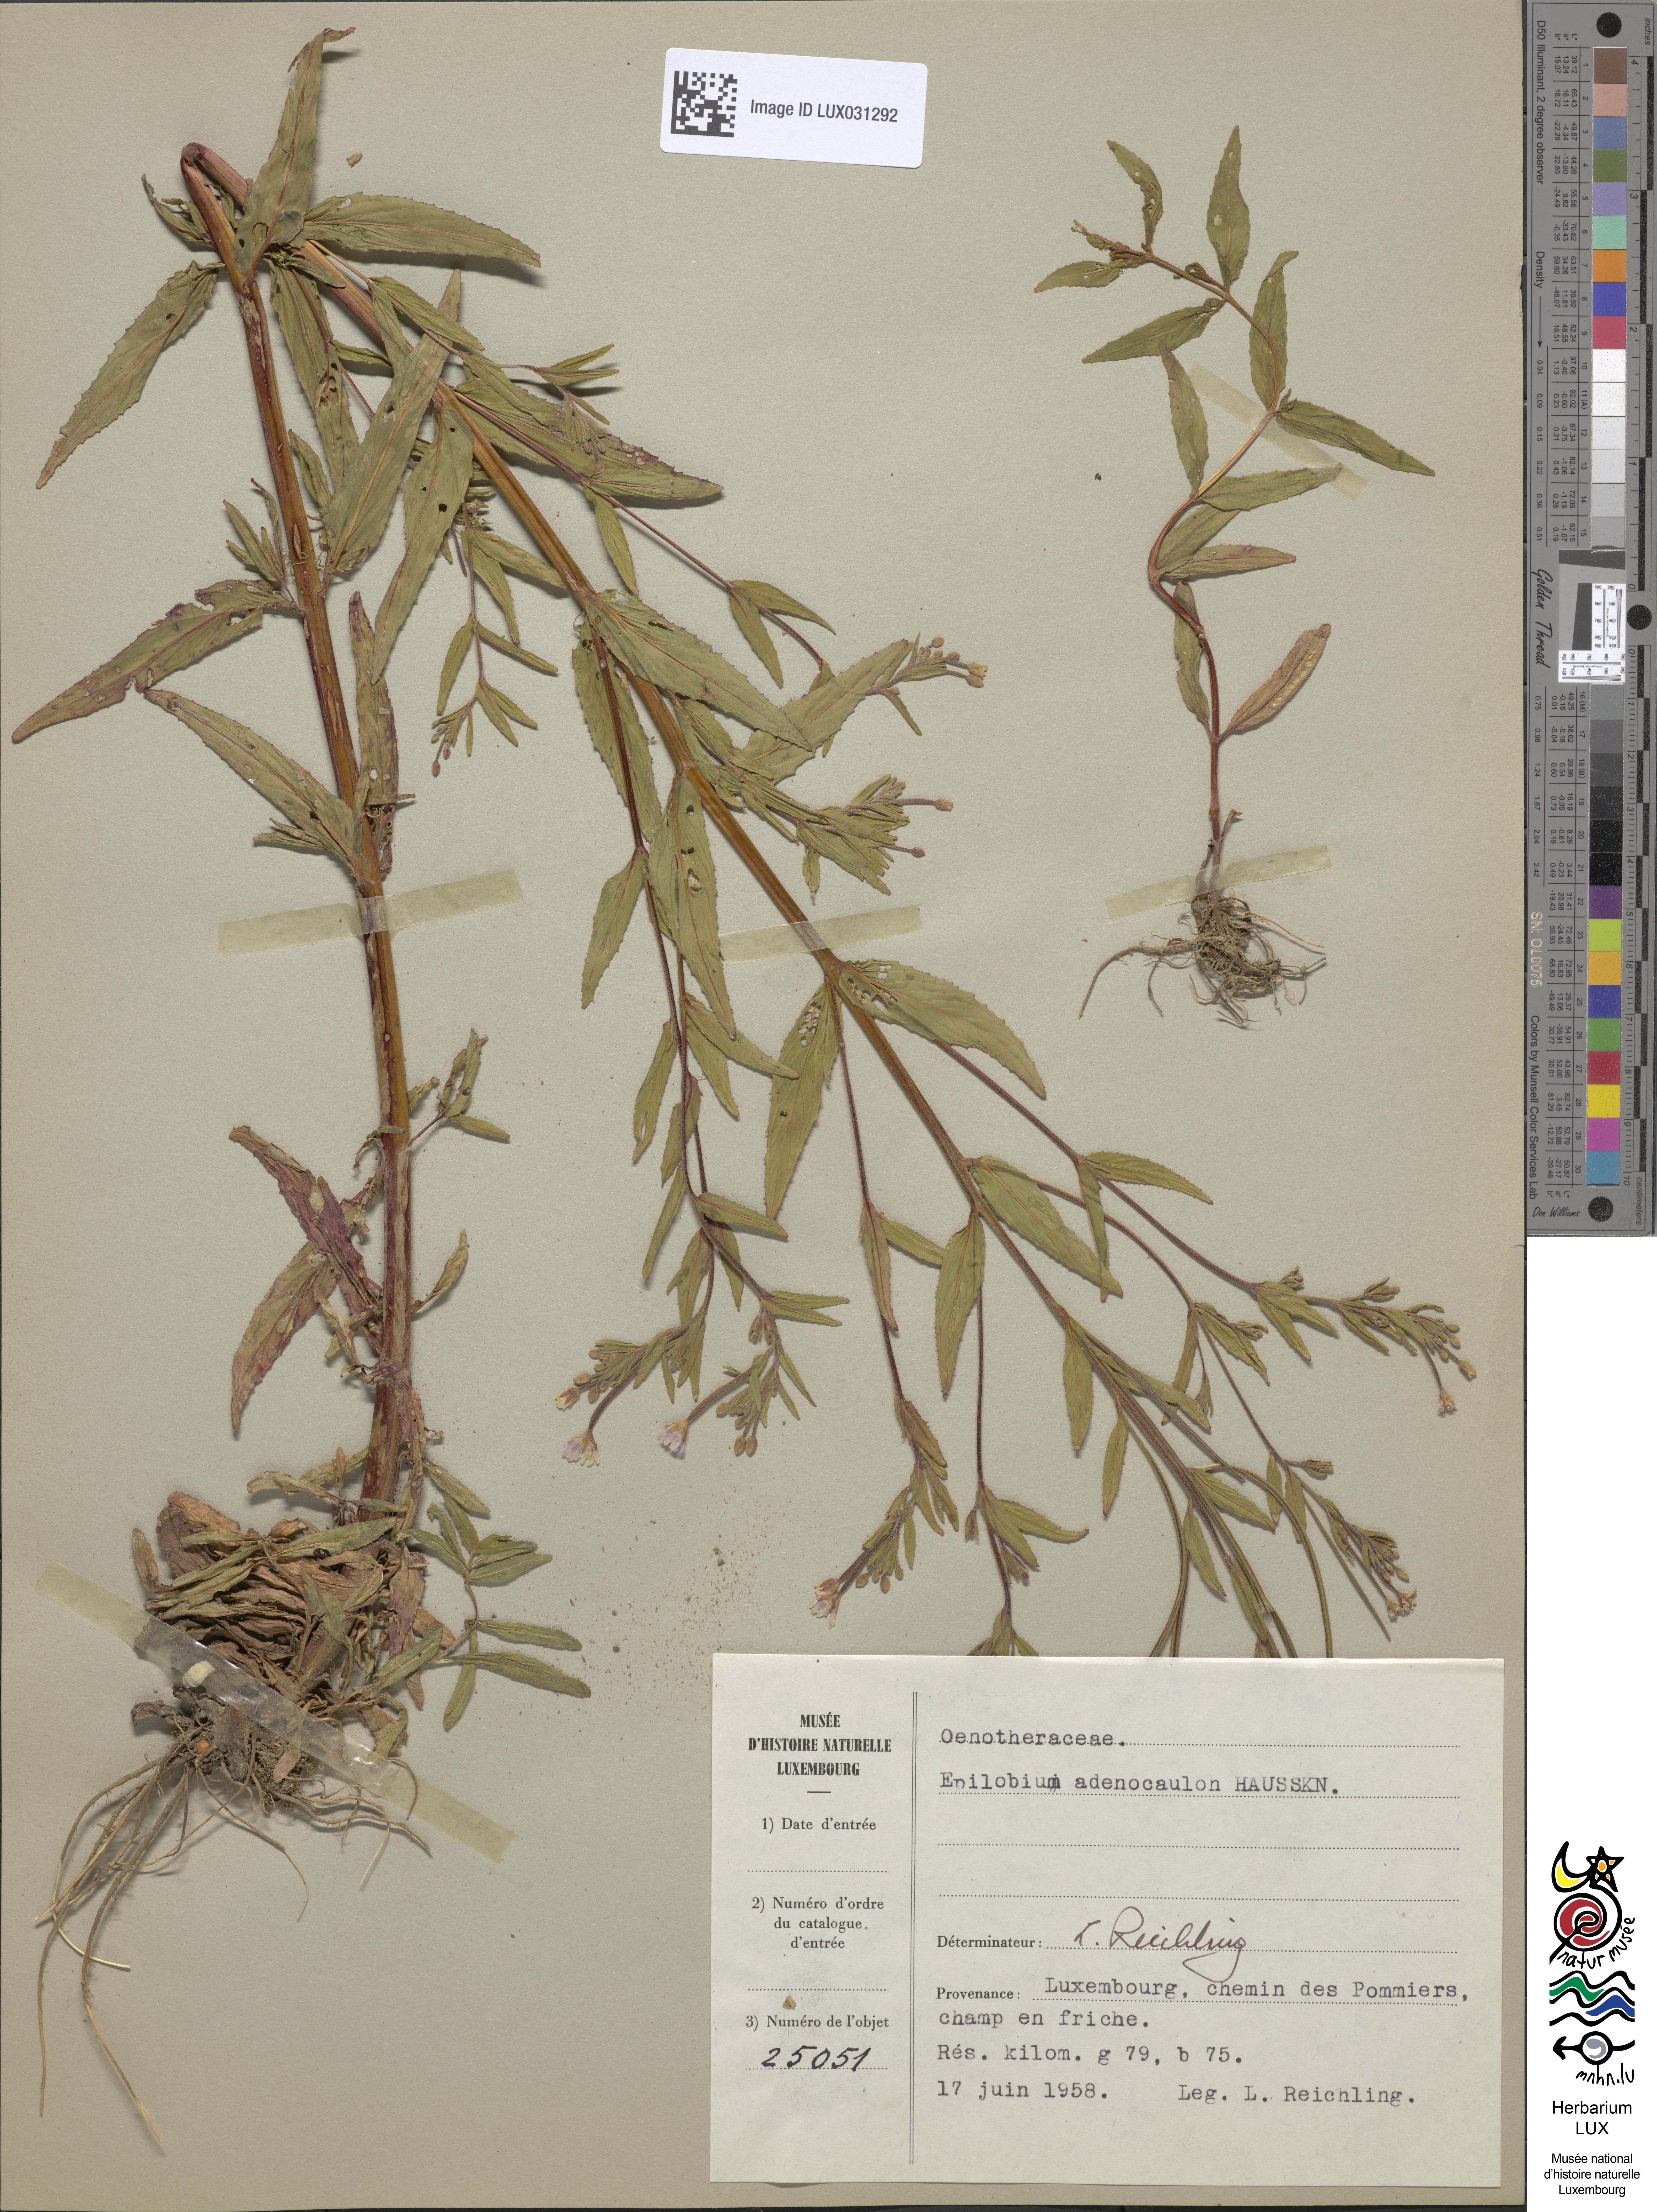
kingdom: Plantae
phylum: Tracheophyta
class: Magnoliopsida
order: Myrtales
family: Onagraceae
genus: Epilobium
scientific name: Epilobium ciliatum
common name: American willowherb
